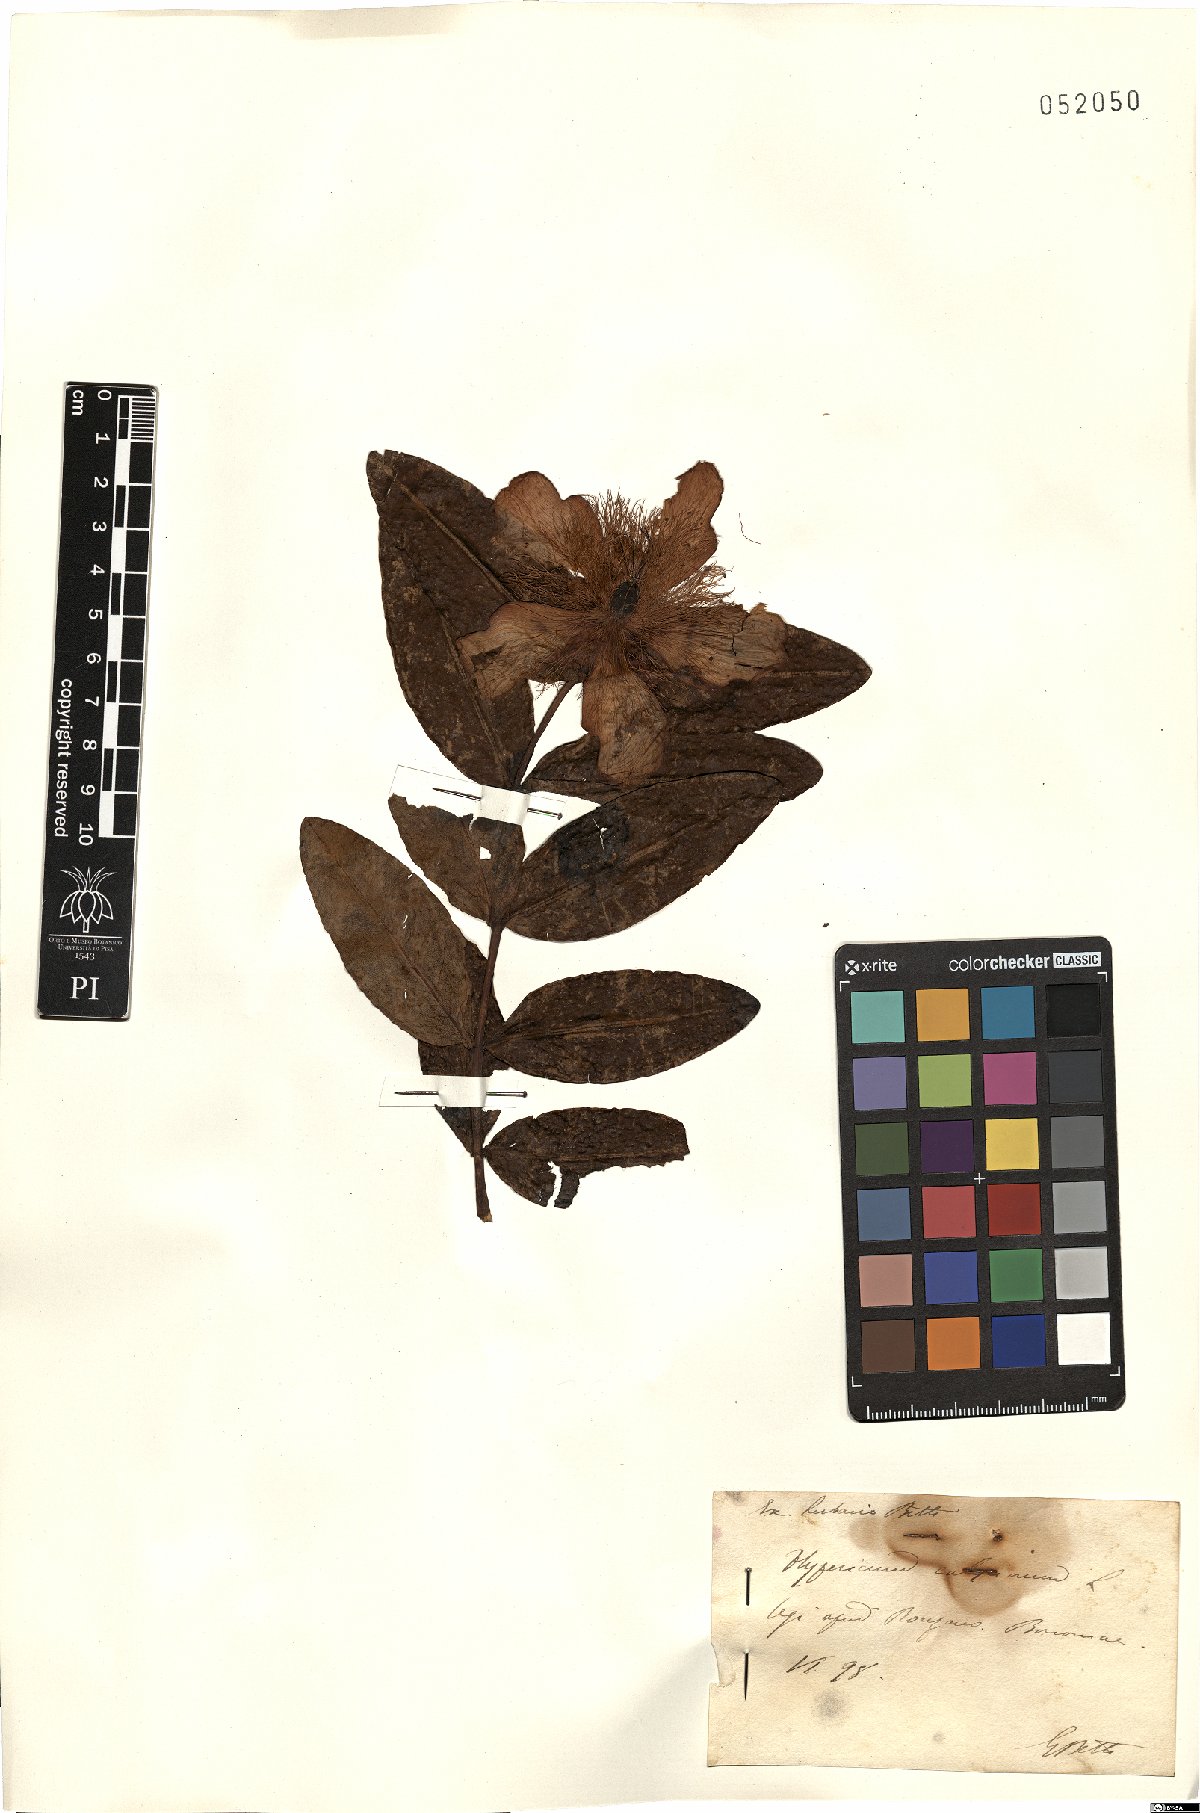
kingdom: Plantae
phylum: Tracheophyta
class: Magnoliopsida
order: Malpighiales
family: Hypericaceae
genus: Hypericum
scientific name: Hypericum calycinum
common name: Rose-of-sharon
